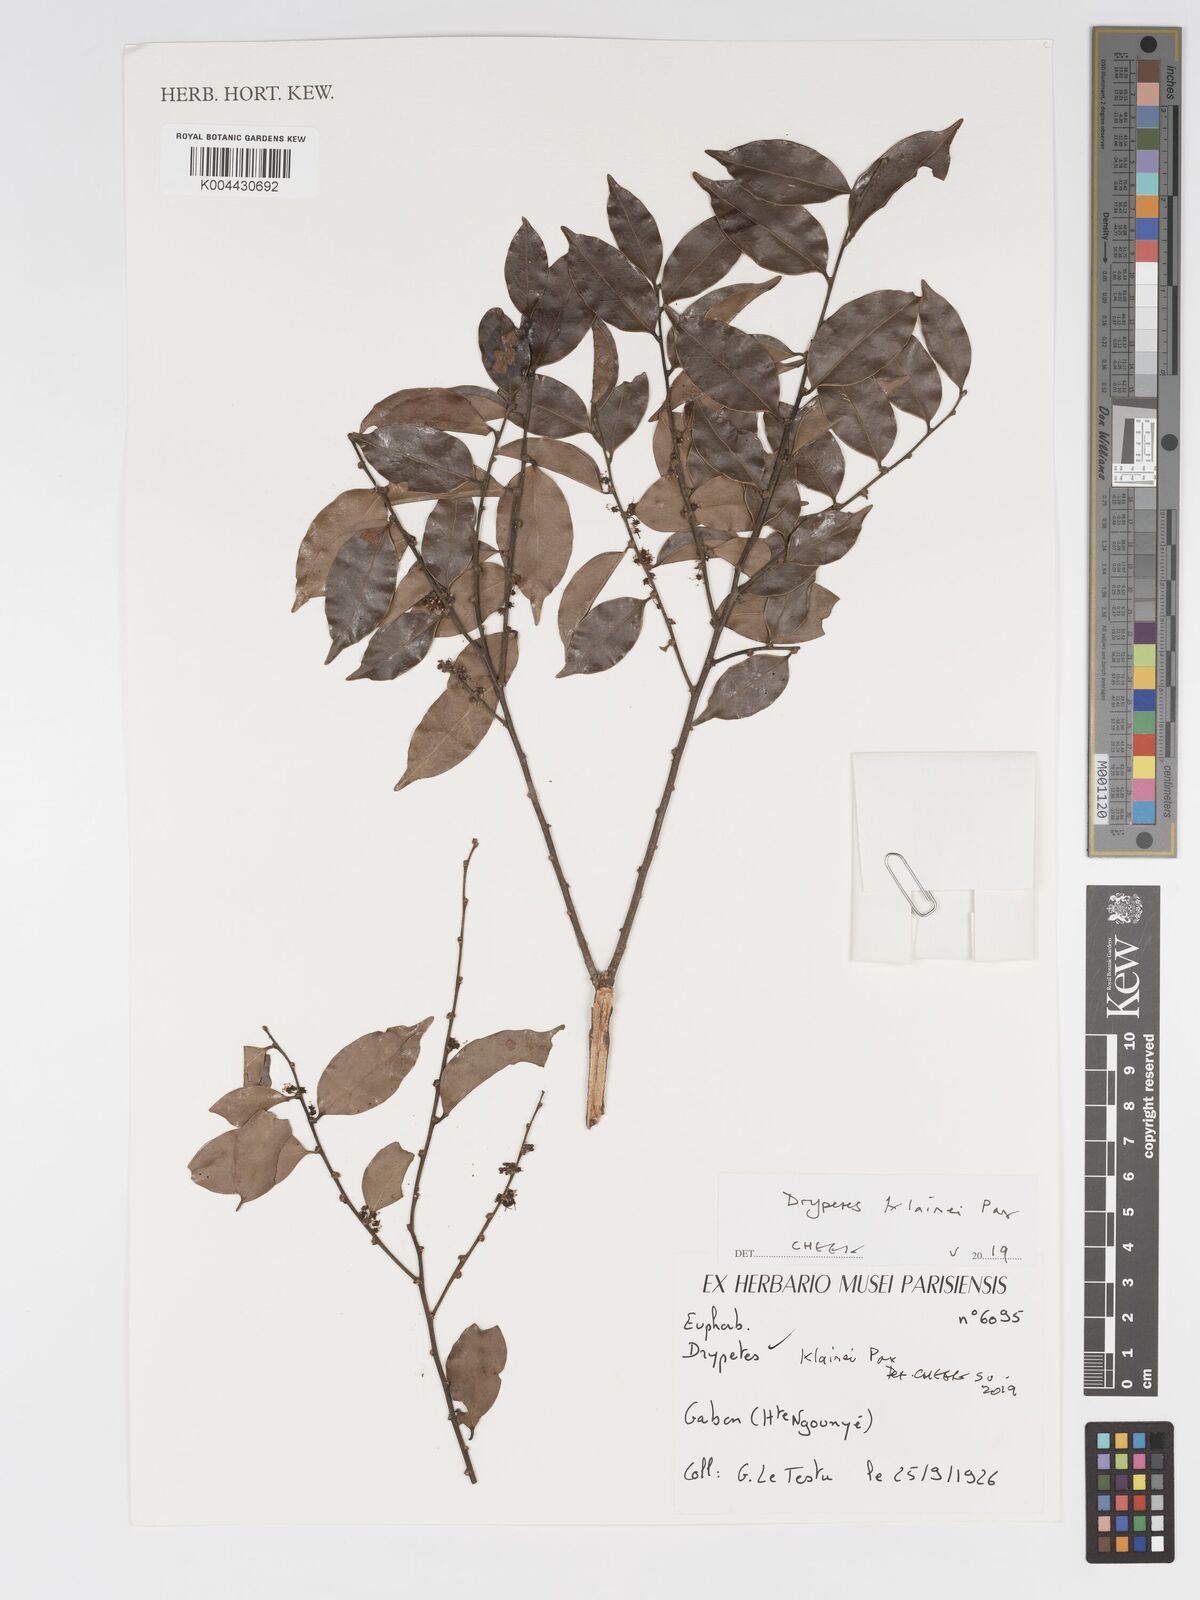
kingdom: Plantae
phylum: Tracheophyta
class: Magnoliopsida
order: Malpighiales
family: Putranjivaceae
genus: Drypetes
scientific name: Drypetes klainei
